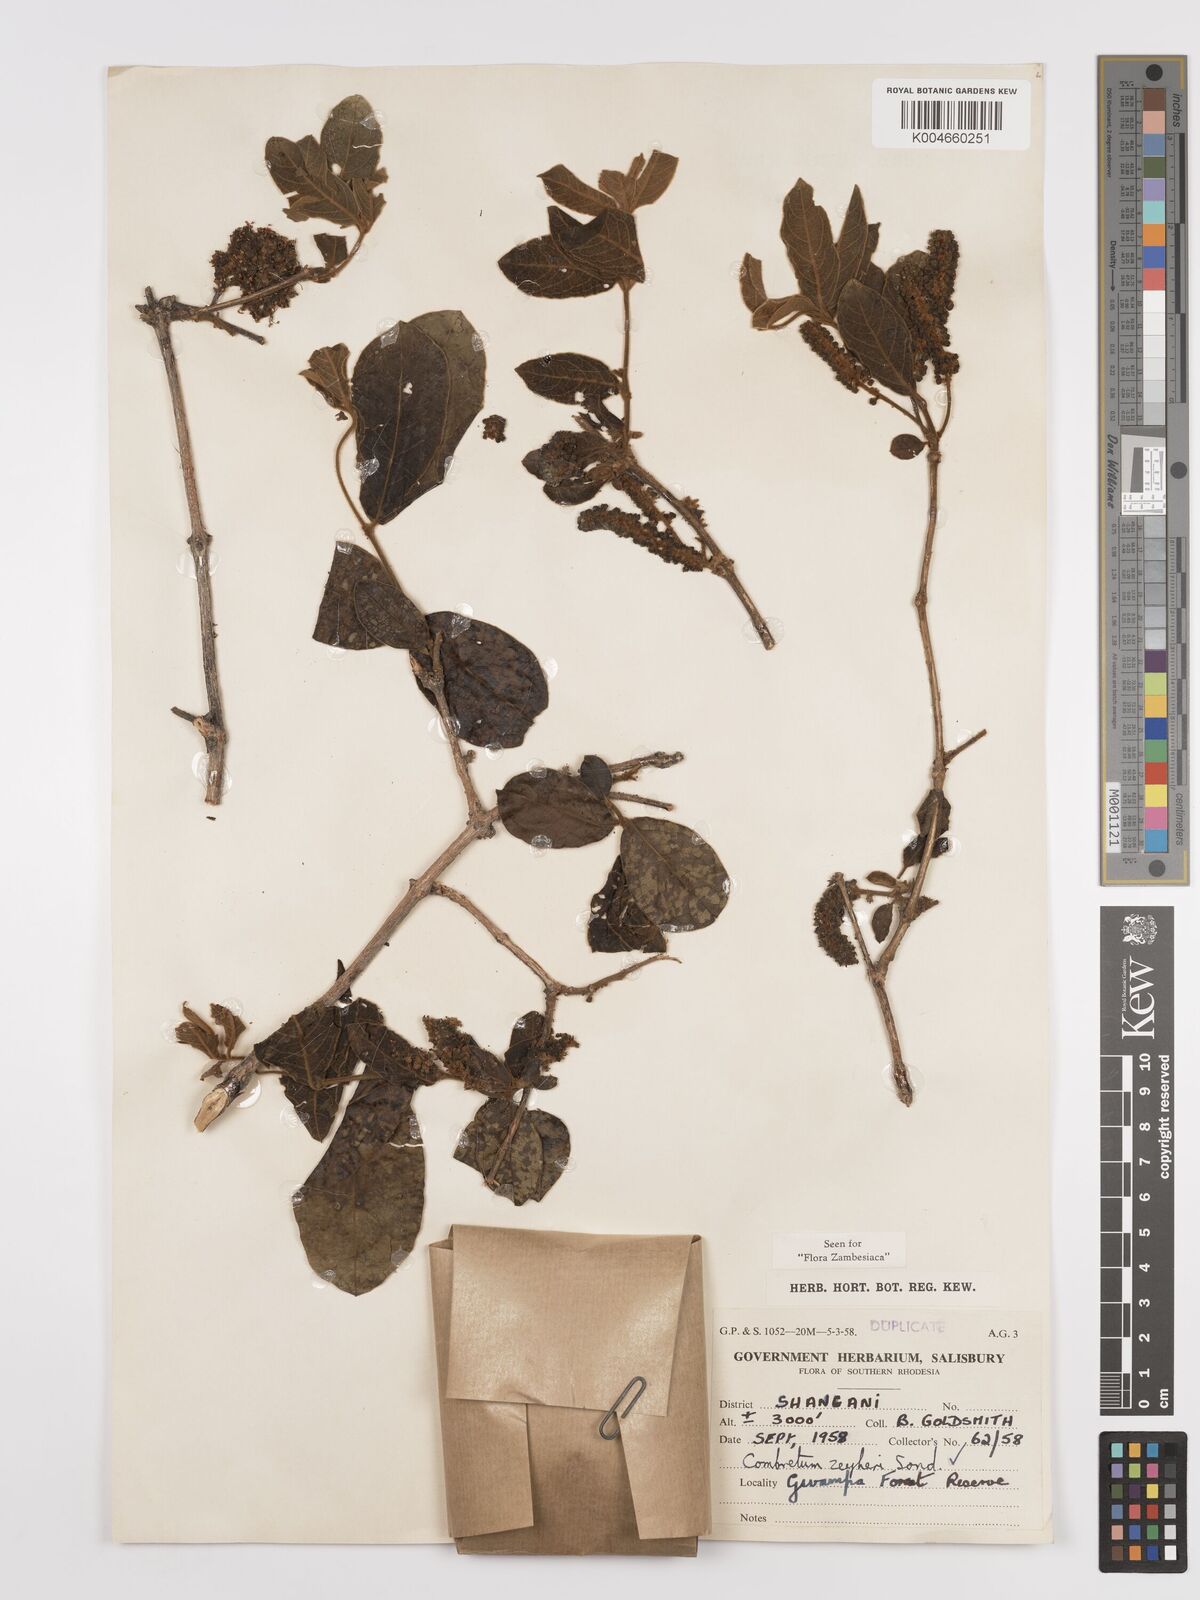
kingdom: Plantae
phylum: Tracheophyta
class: Magnoliopsida
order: Myrtales
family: Combretaceae
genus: Combretum
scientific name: Combretum zeyheri
